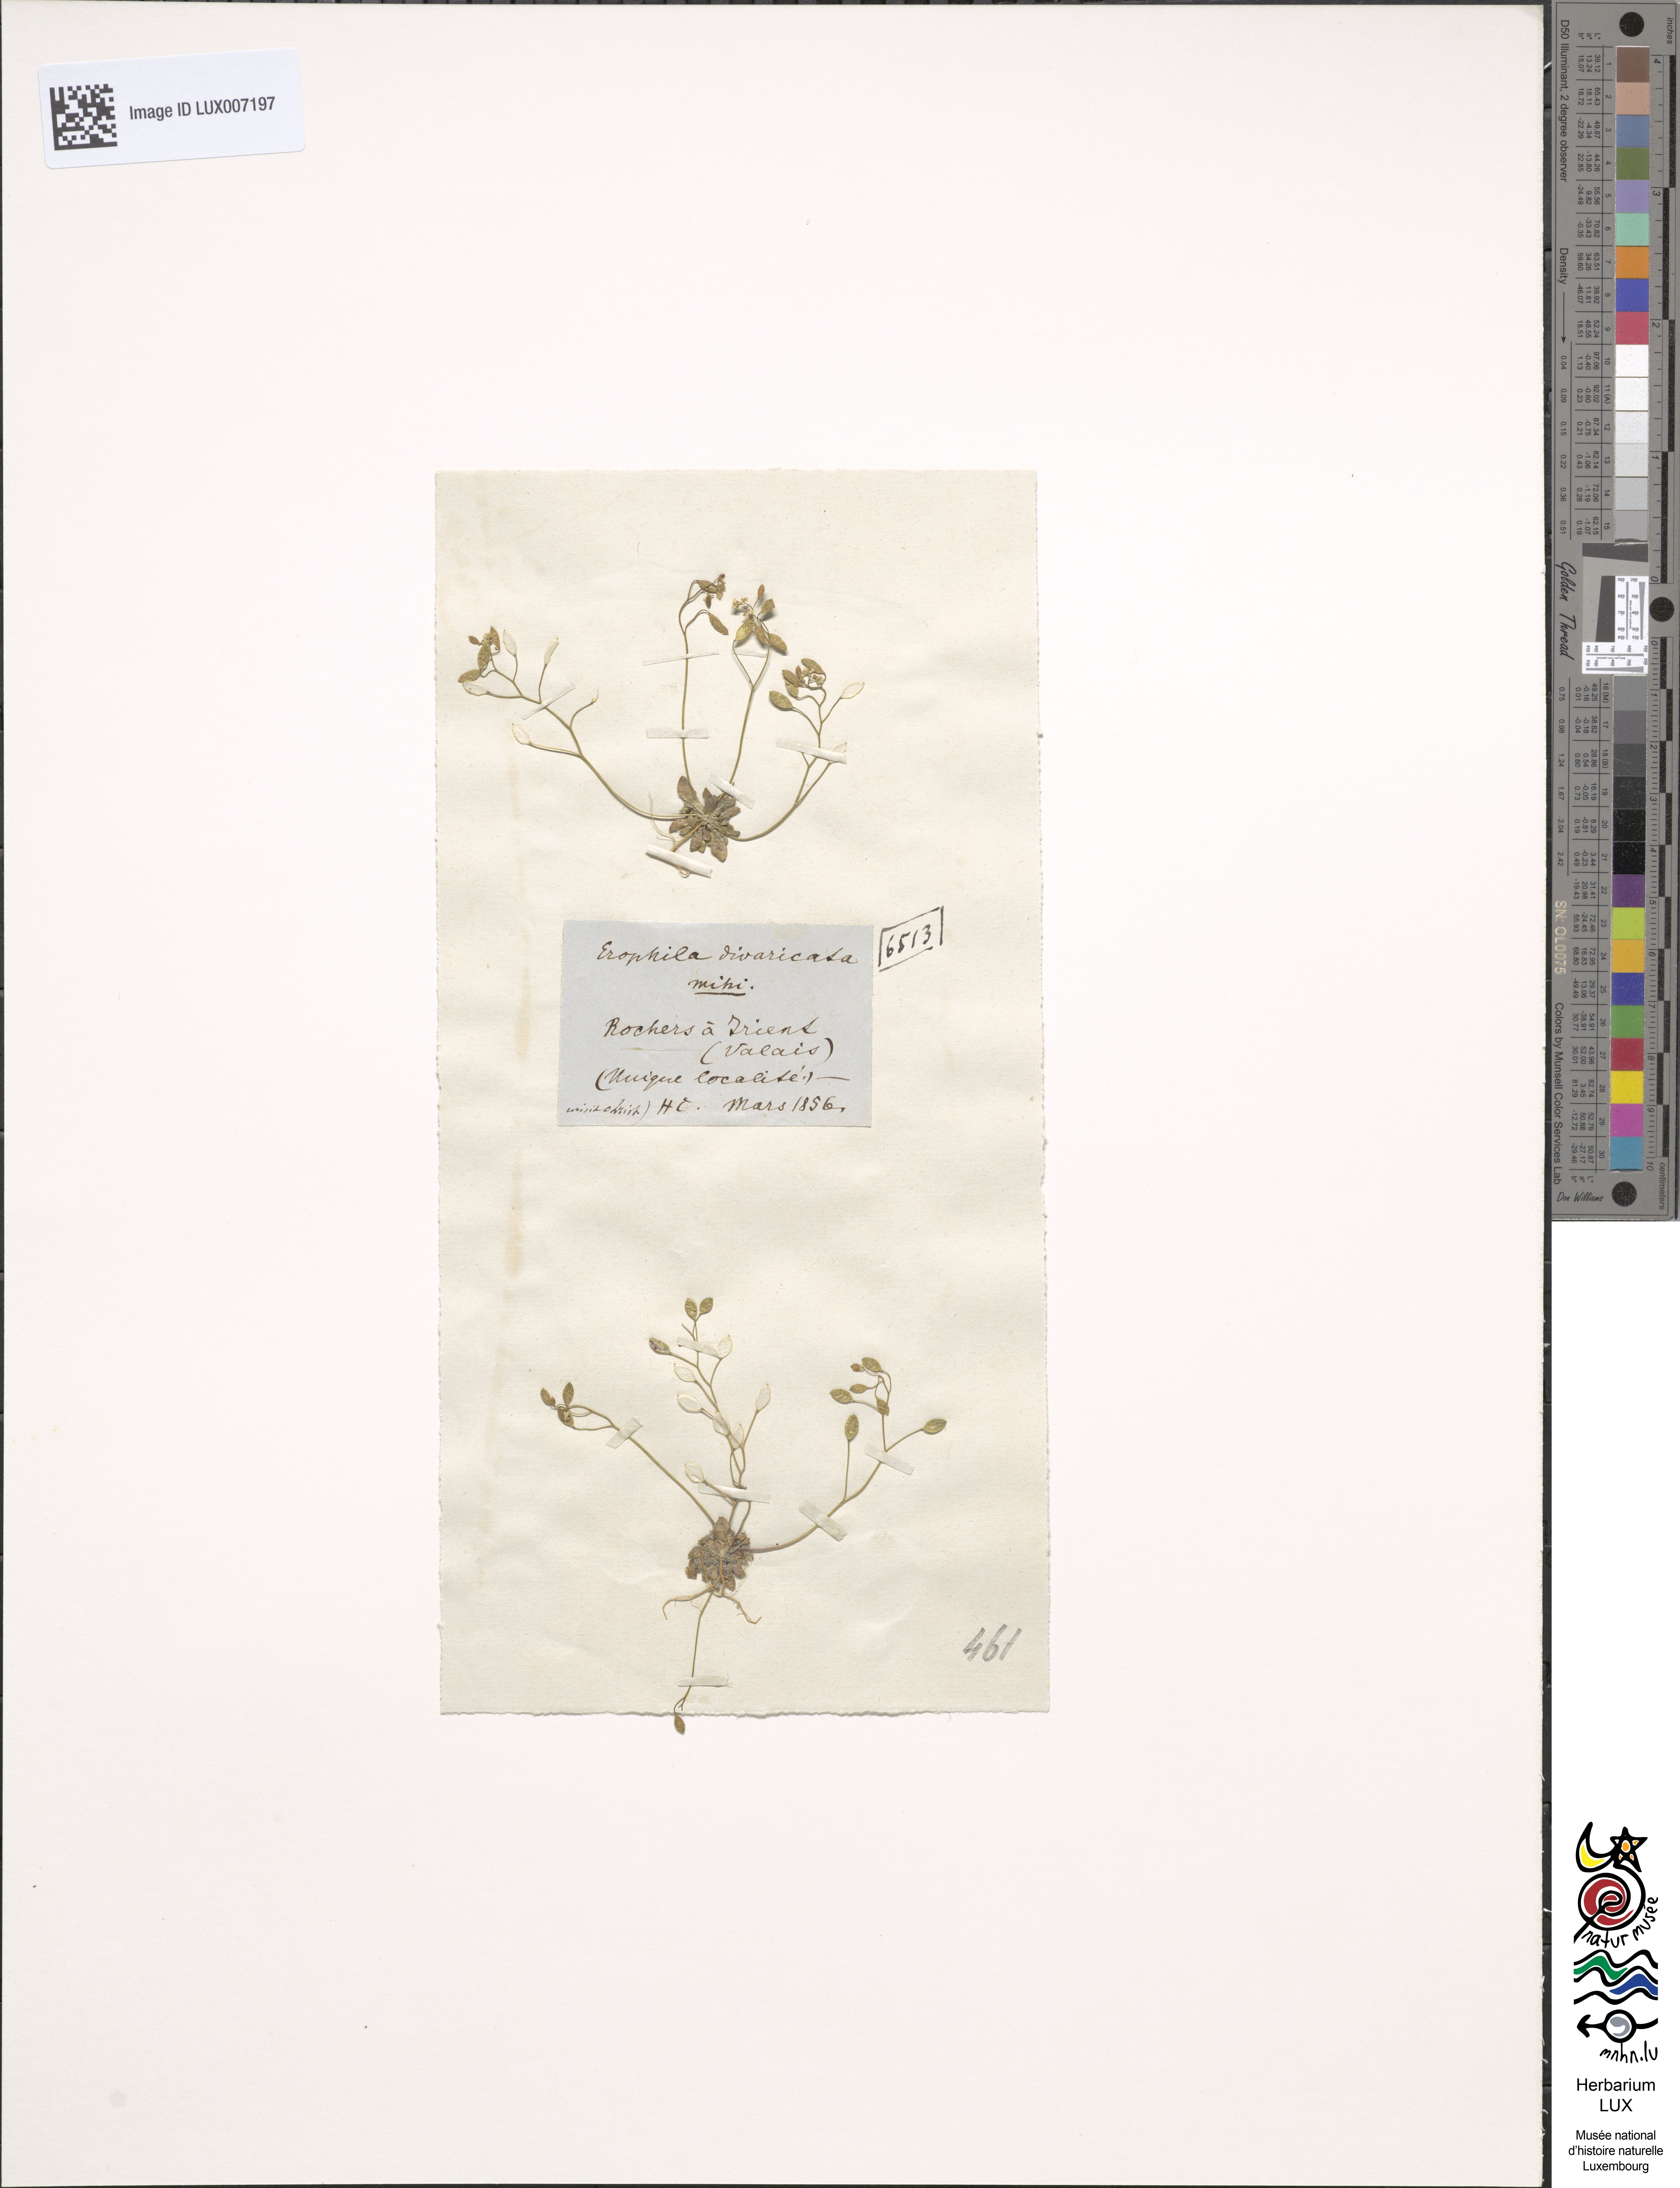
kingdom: Plantae
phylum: Tracheophyta
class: Magnoliopsida
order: Brassicales
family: Brassicaceae
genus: Draba
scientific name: Draba
